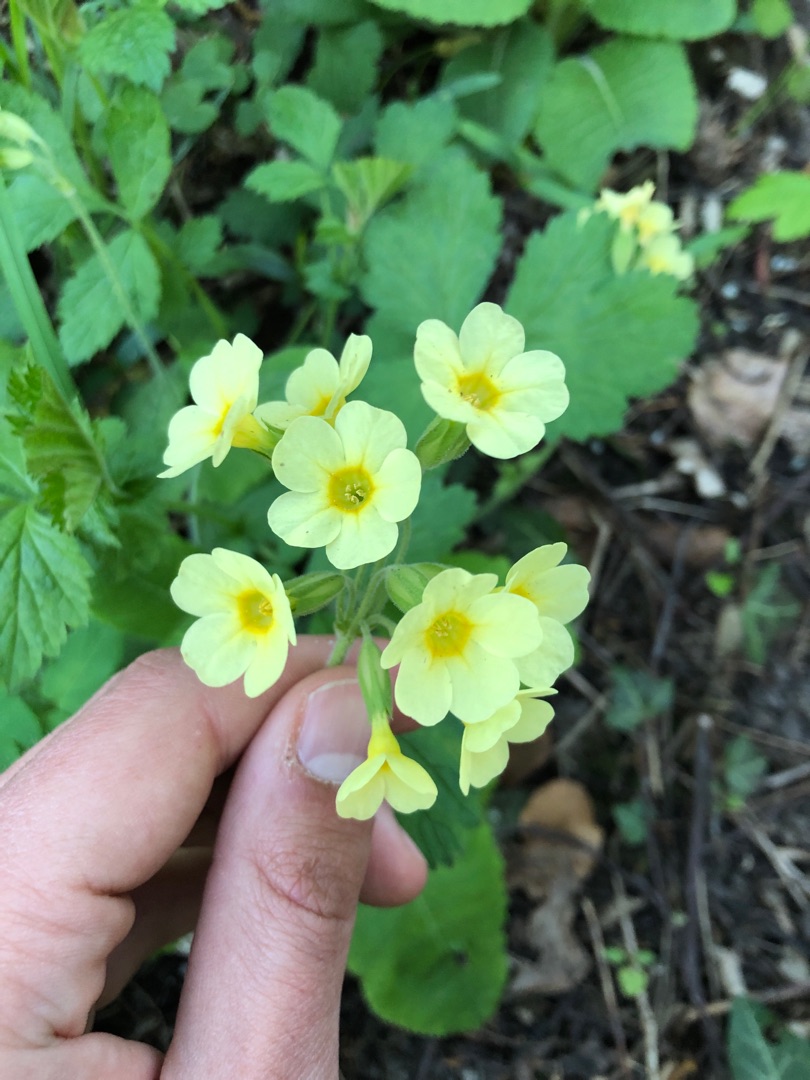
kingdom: Plantae
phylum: Tracheophyta
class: Magnoliopsida
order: Ericales
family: Primulaceae
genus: Primula
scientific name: Primula elatior
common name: Fladkravet kodriver
